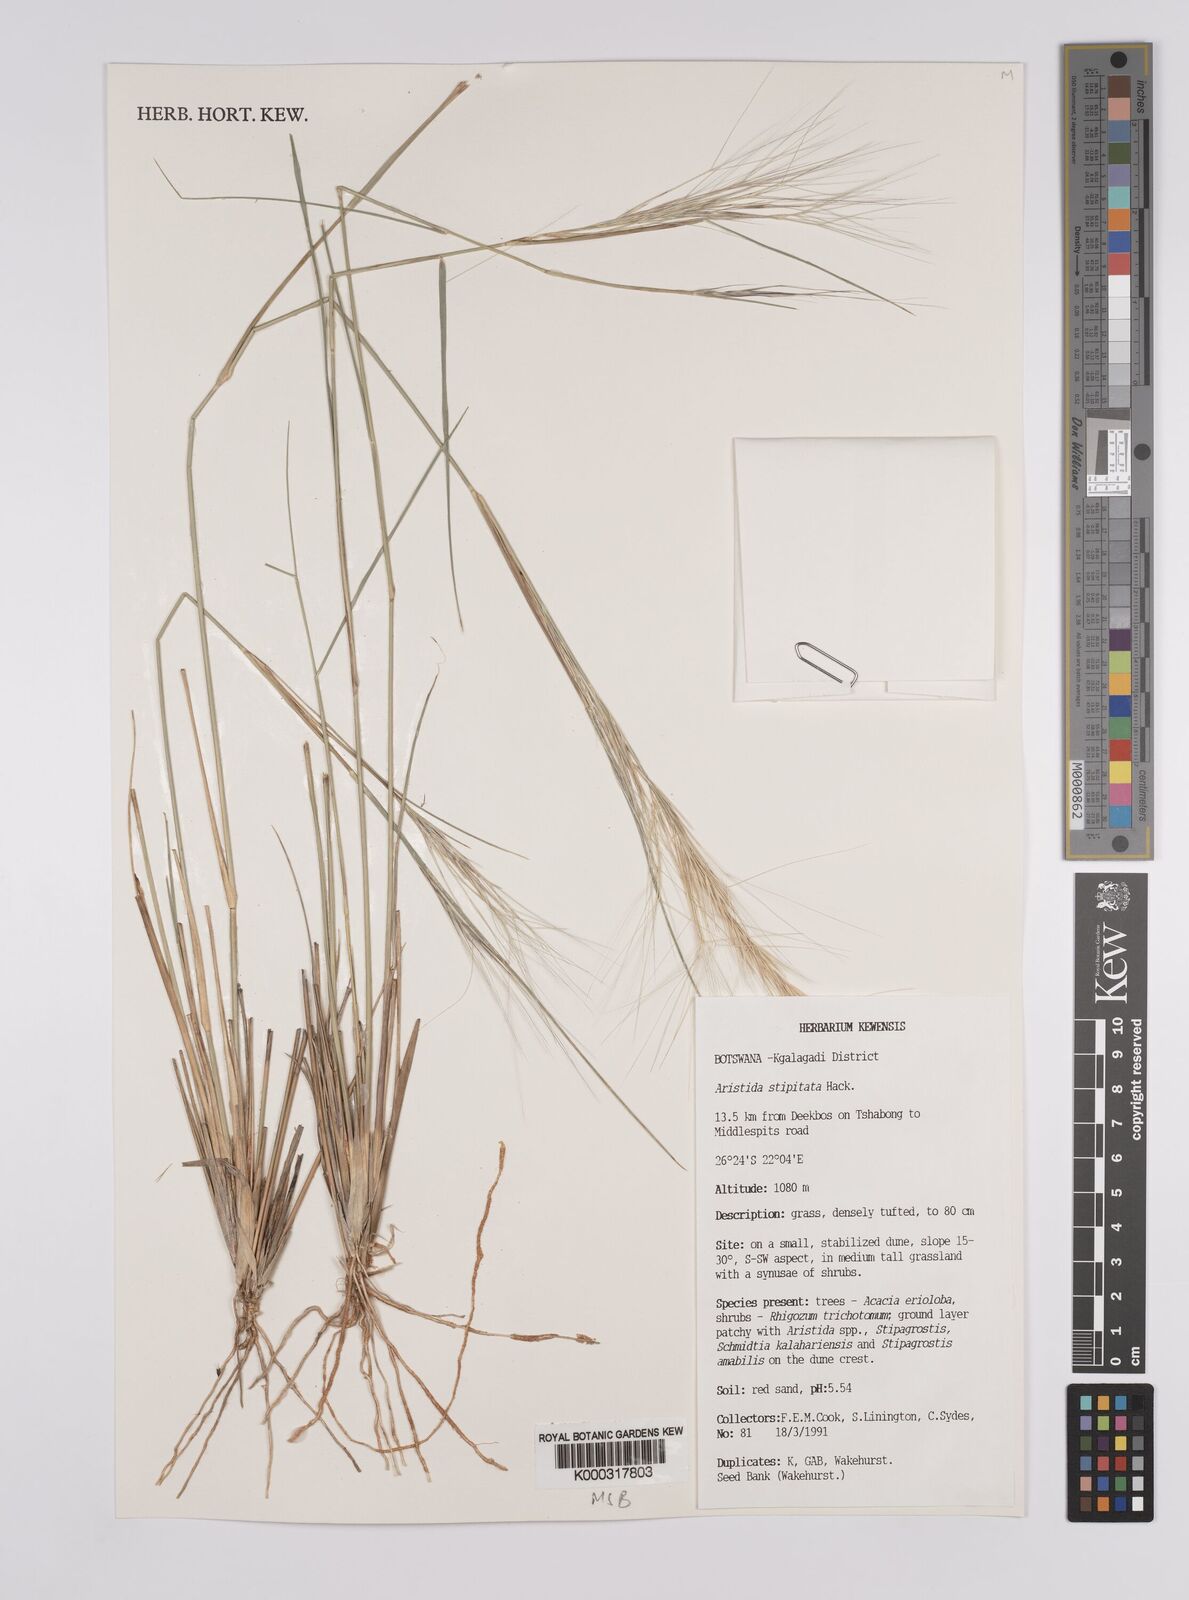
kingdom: Plantae
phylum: Tracheophyta
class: Liliopsida
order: Poales
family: Poaceae
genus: Aristida
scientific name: Aristida stipitata
